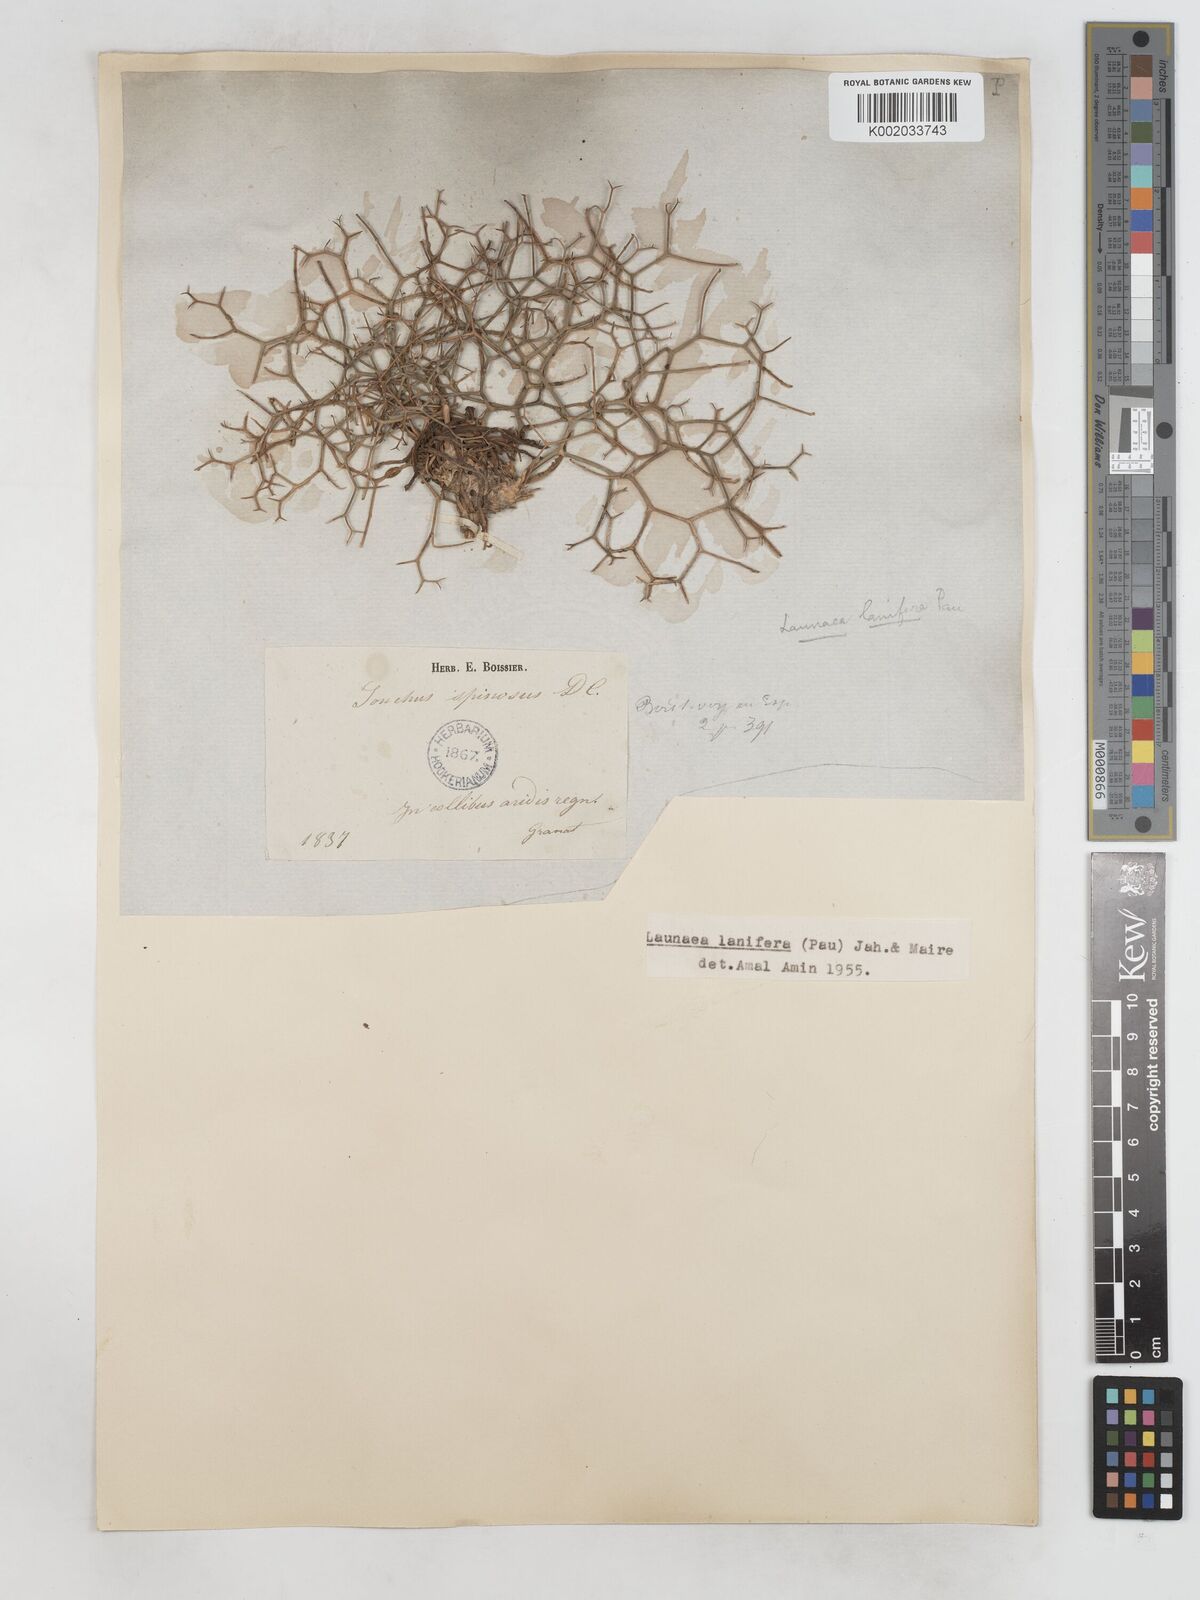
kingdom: Plantae
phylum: Tracheophyta
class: Magnoliopsida
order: Asterales
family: Asteraceae
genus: Launaea
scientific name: Launaea lanifera
